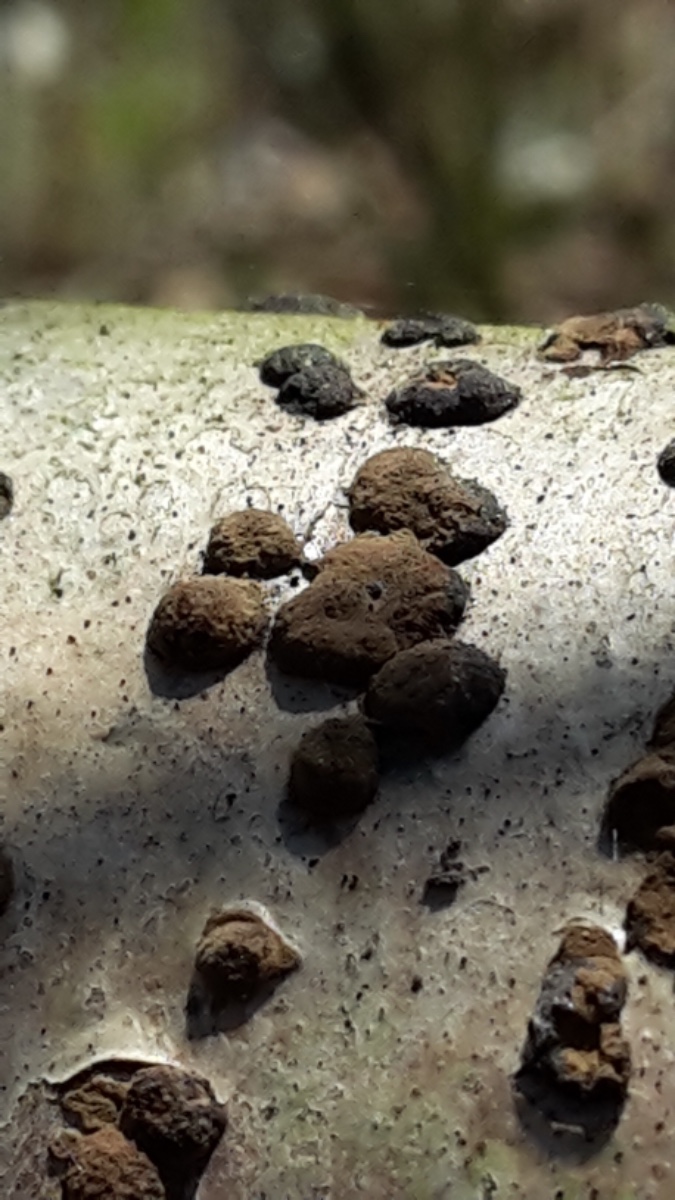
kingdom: Fungi
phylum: Ascomycota
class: Sordariomycetes
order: Xylariales
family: Hypoxylaceae
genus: Hypoxylon
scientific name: Hypoxylon fuscum
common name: kegleformet kulbær
